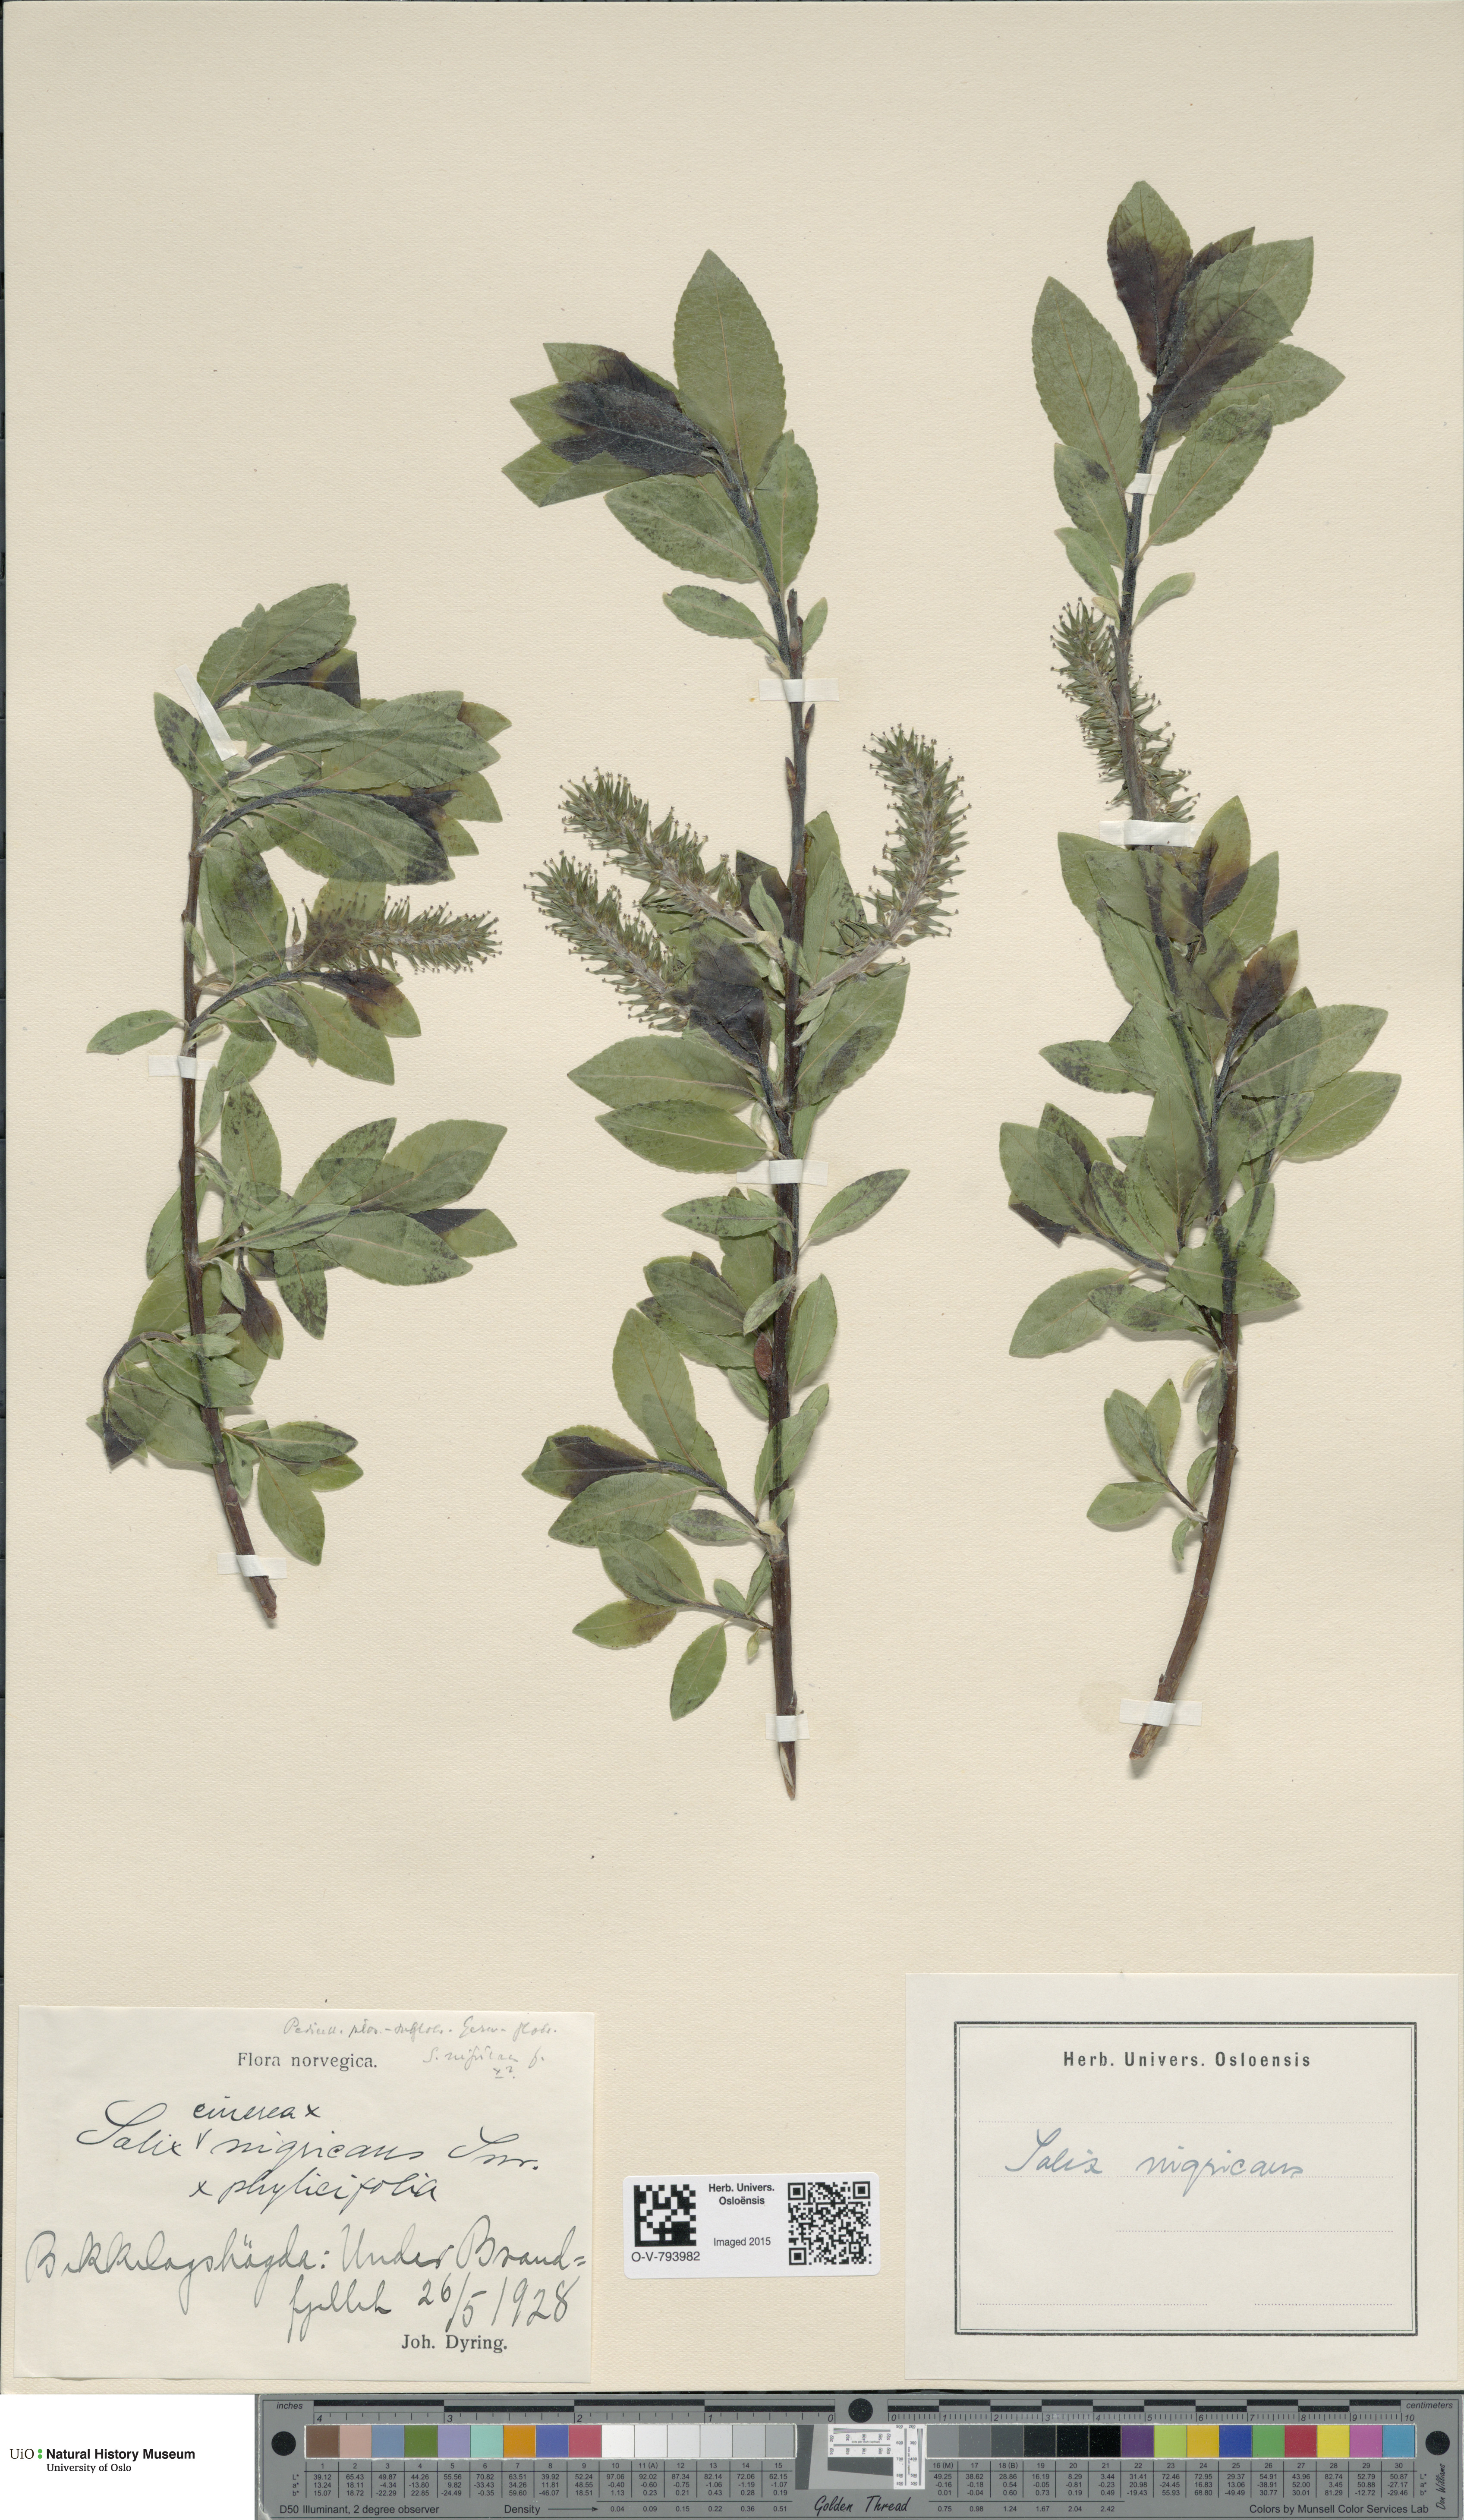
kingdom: Plantae
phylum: Tracheophyta
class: Magnoliopsida
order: Malpighiales
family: Salicaceae
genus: Salix
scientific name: Salix myrsinifolia
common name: Dark-leaved willow
